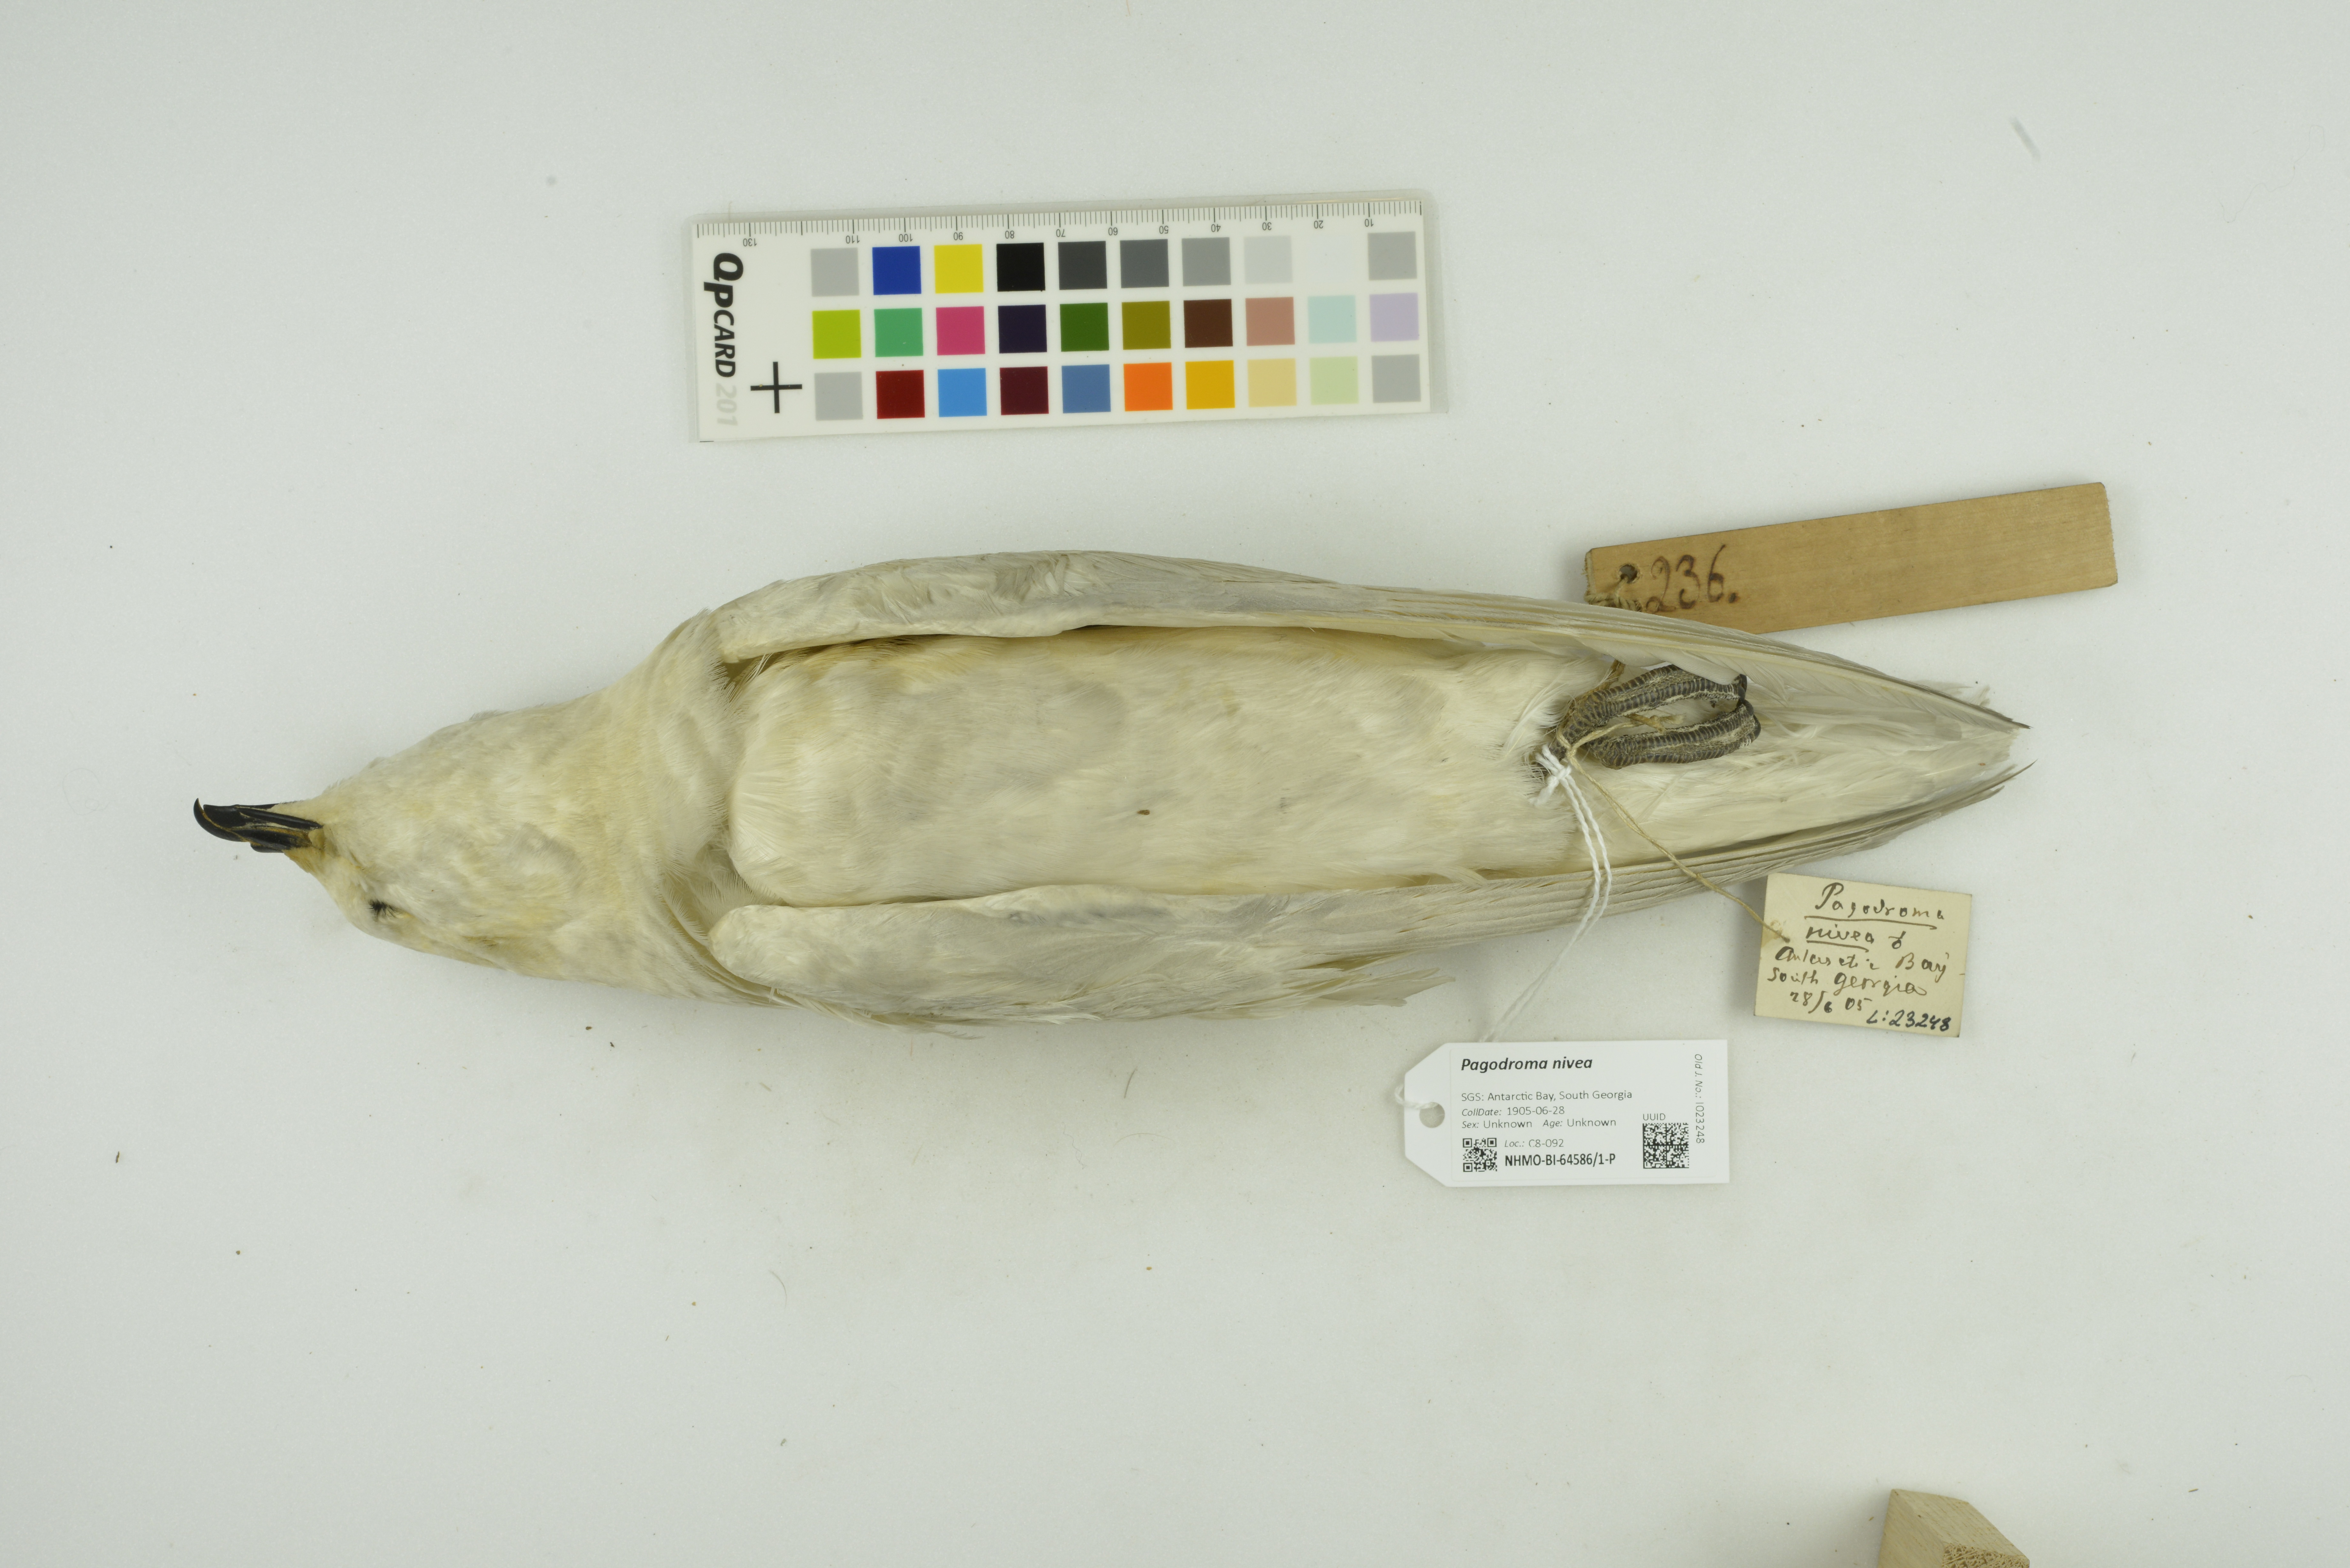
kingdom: Animalia
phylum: Chordata
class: Aves
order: Procellariiformes
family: Procellariidae
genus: Pagodroma
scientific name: Pagodroma nivea
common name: Snow petrel
